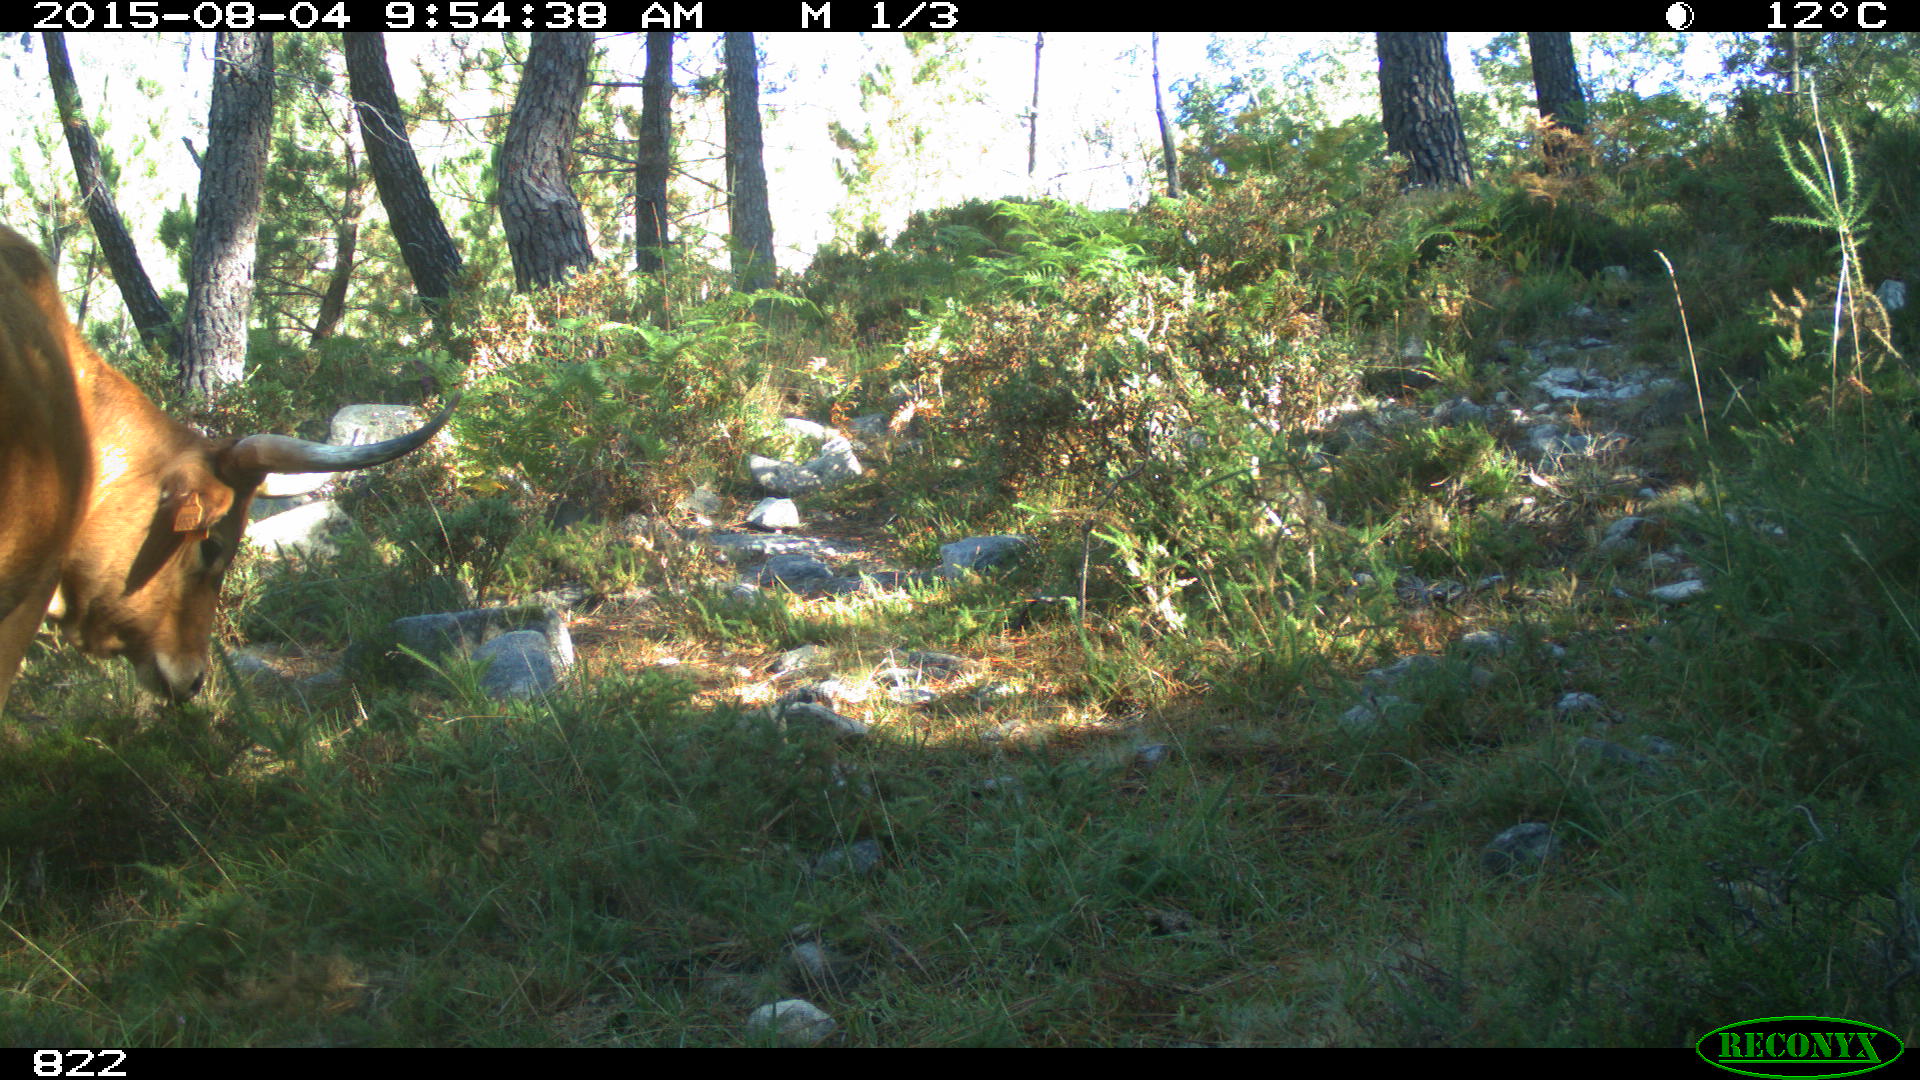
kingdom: Animalia
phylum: Chordata
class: Mammalia
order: Artiodactyla
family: Bovidae
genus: Bos
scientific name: Bos taurus
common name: Domesticated cattle
